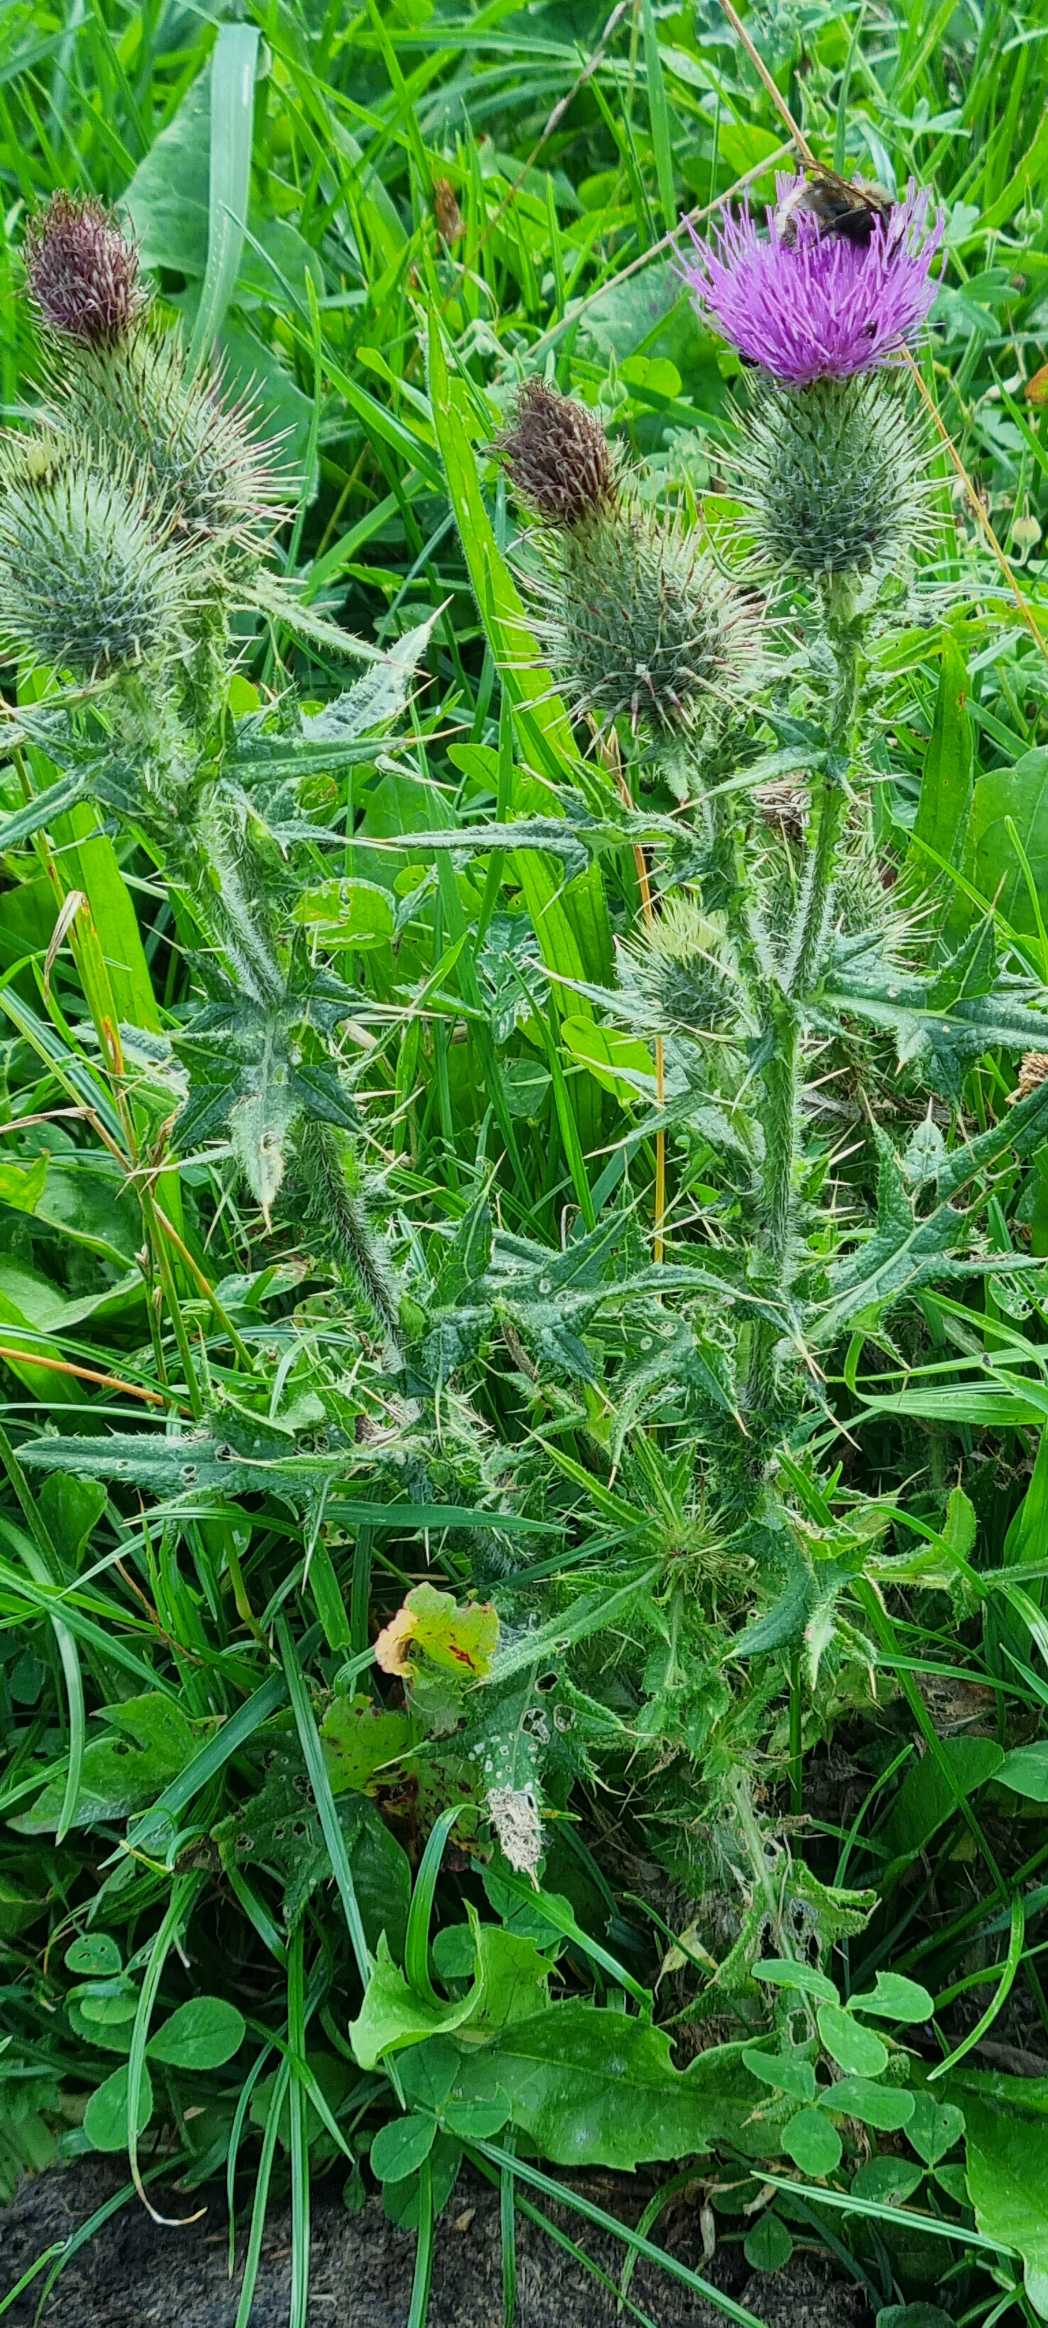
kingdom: Plantae
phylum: Tracheophyta
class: Magnoliopsida
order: Asterales
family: Asteraceae
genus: Cirsium
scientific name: Cirsium vulgare
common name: Horse-tidsel
